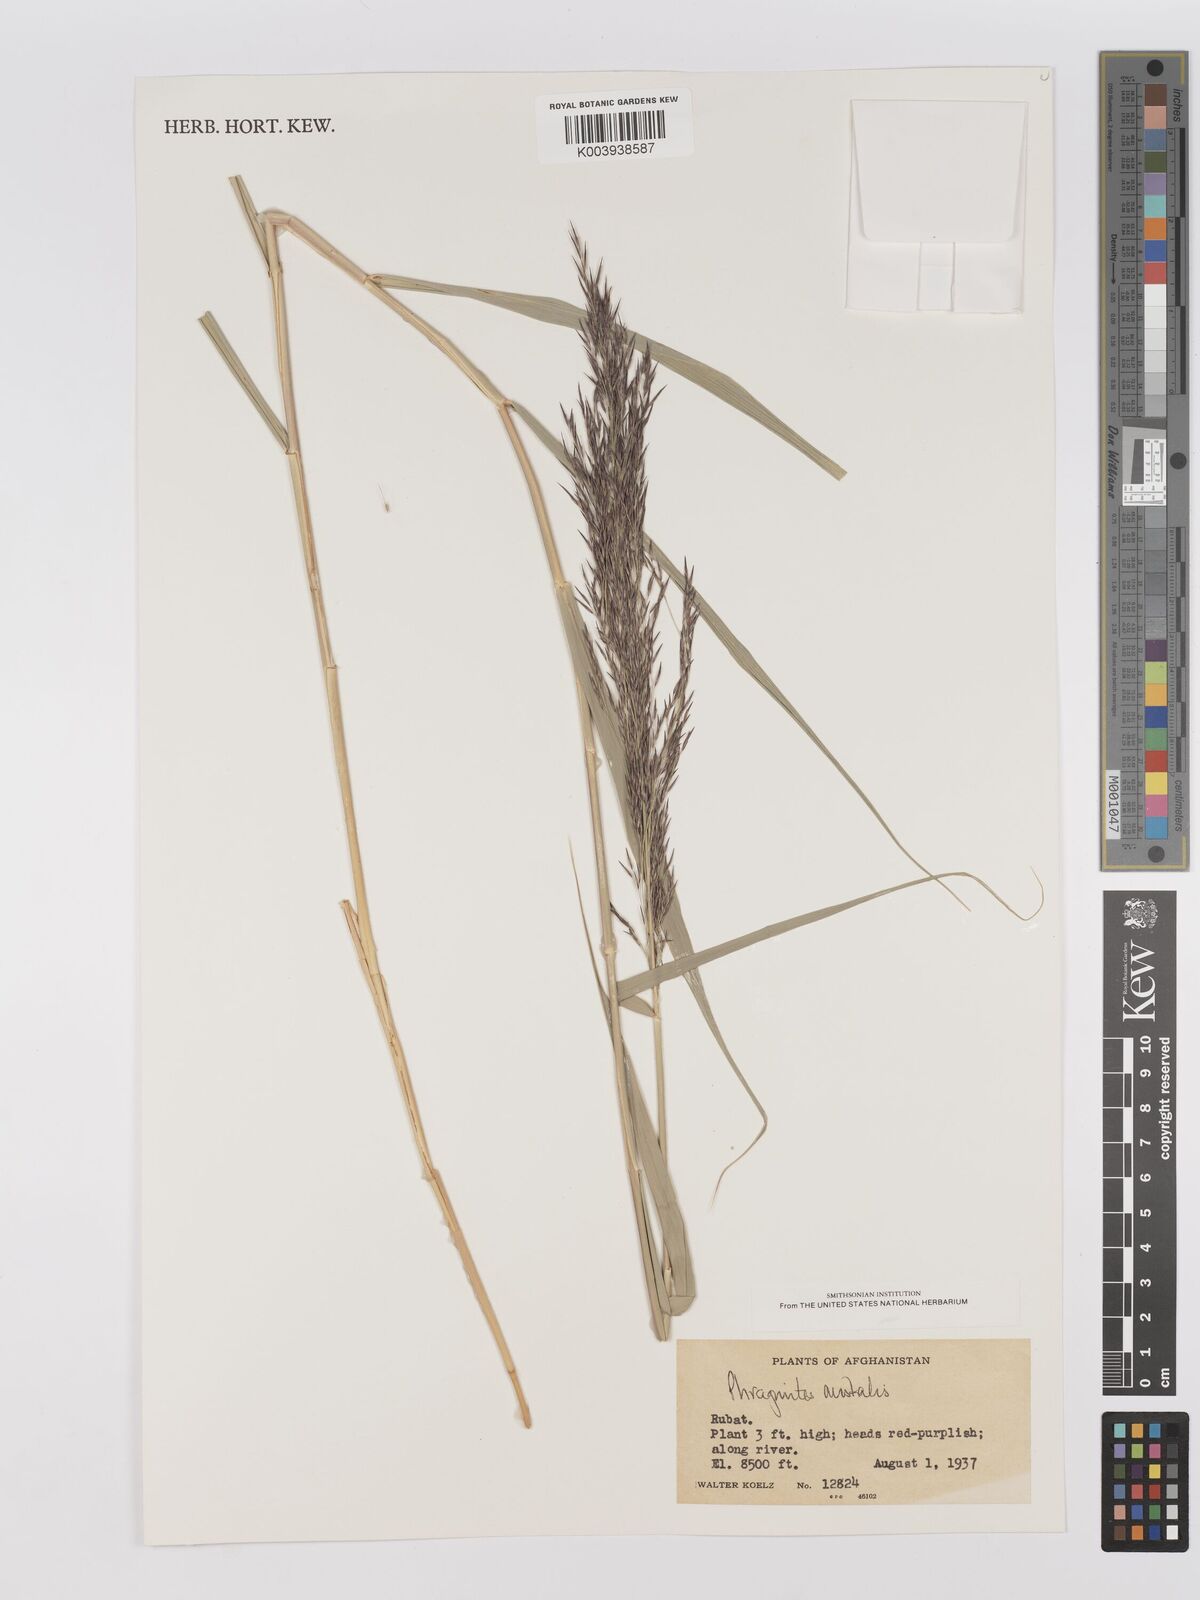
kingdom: Plantae
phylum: Tracheophyta
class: Liliopsida
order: Poales
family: Poaceae
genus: Phragmites
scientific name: Phragmites australis
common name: Common reed
